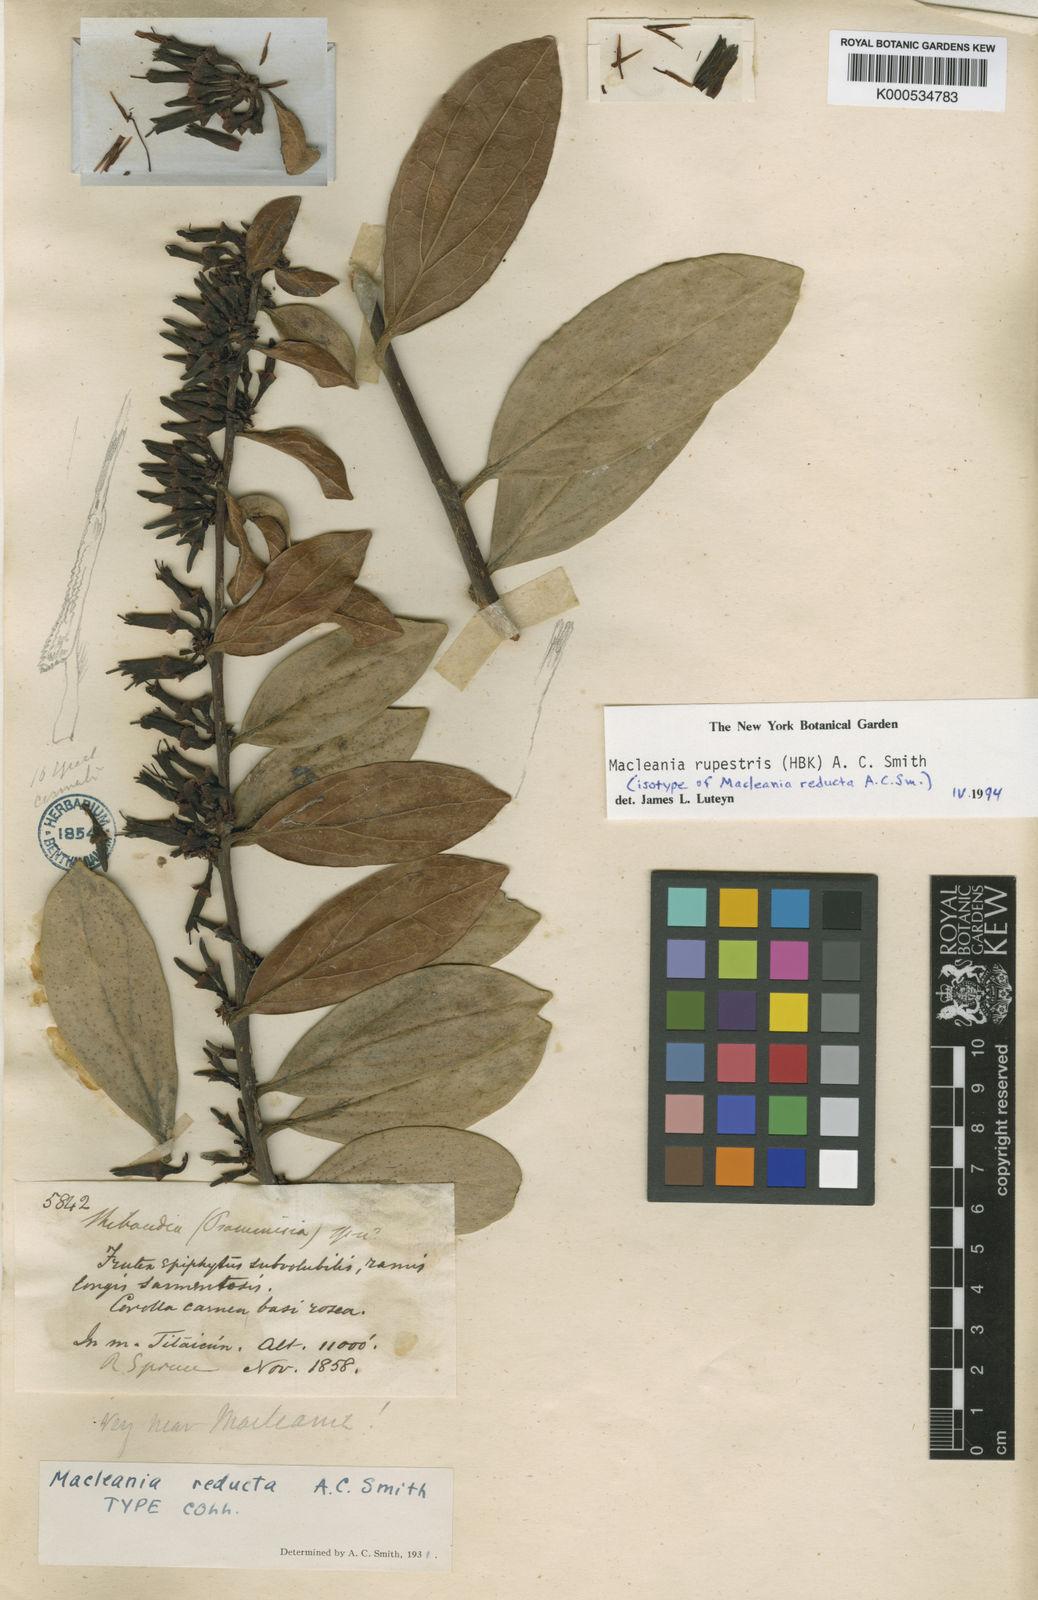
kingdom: Plantae
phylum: Tracheophyta
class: Magnoliopsida
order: Ericales
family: Ericaceae
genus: Macleania
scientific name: Macleania rupestris
